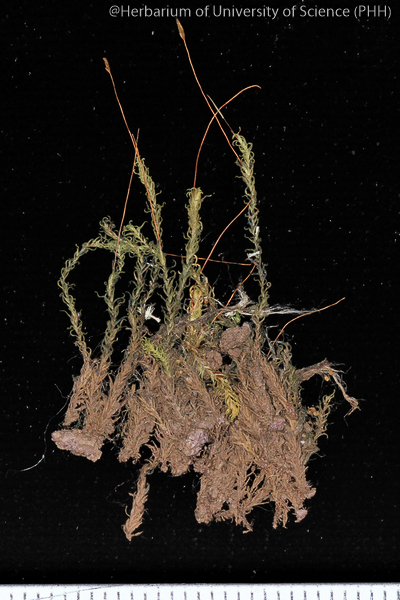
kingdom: Plantae
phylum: Bryophyta
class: Bryopsida
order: Pottiales
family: Pottiaceae
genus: Hydrogonium
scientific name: Hydrogonium consanguineum
